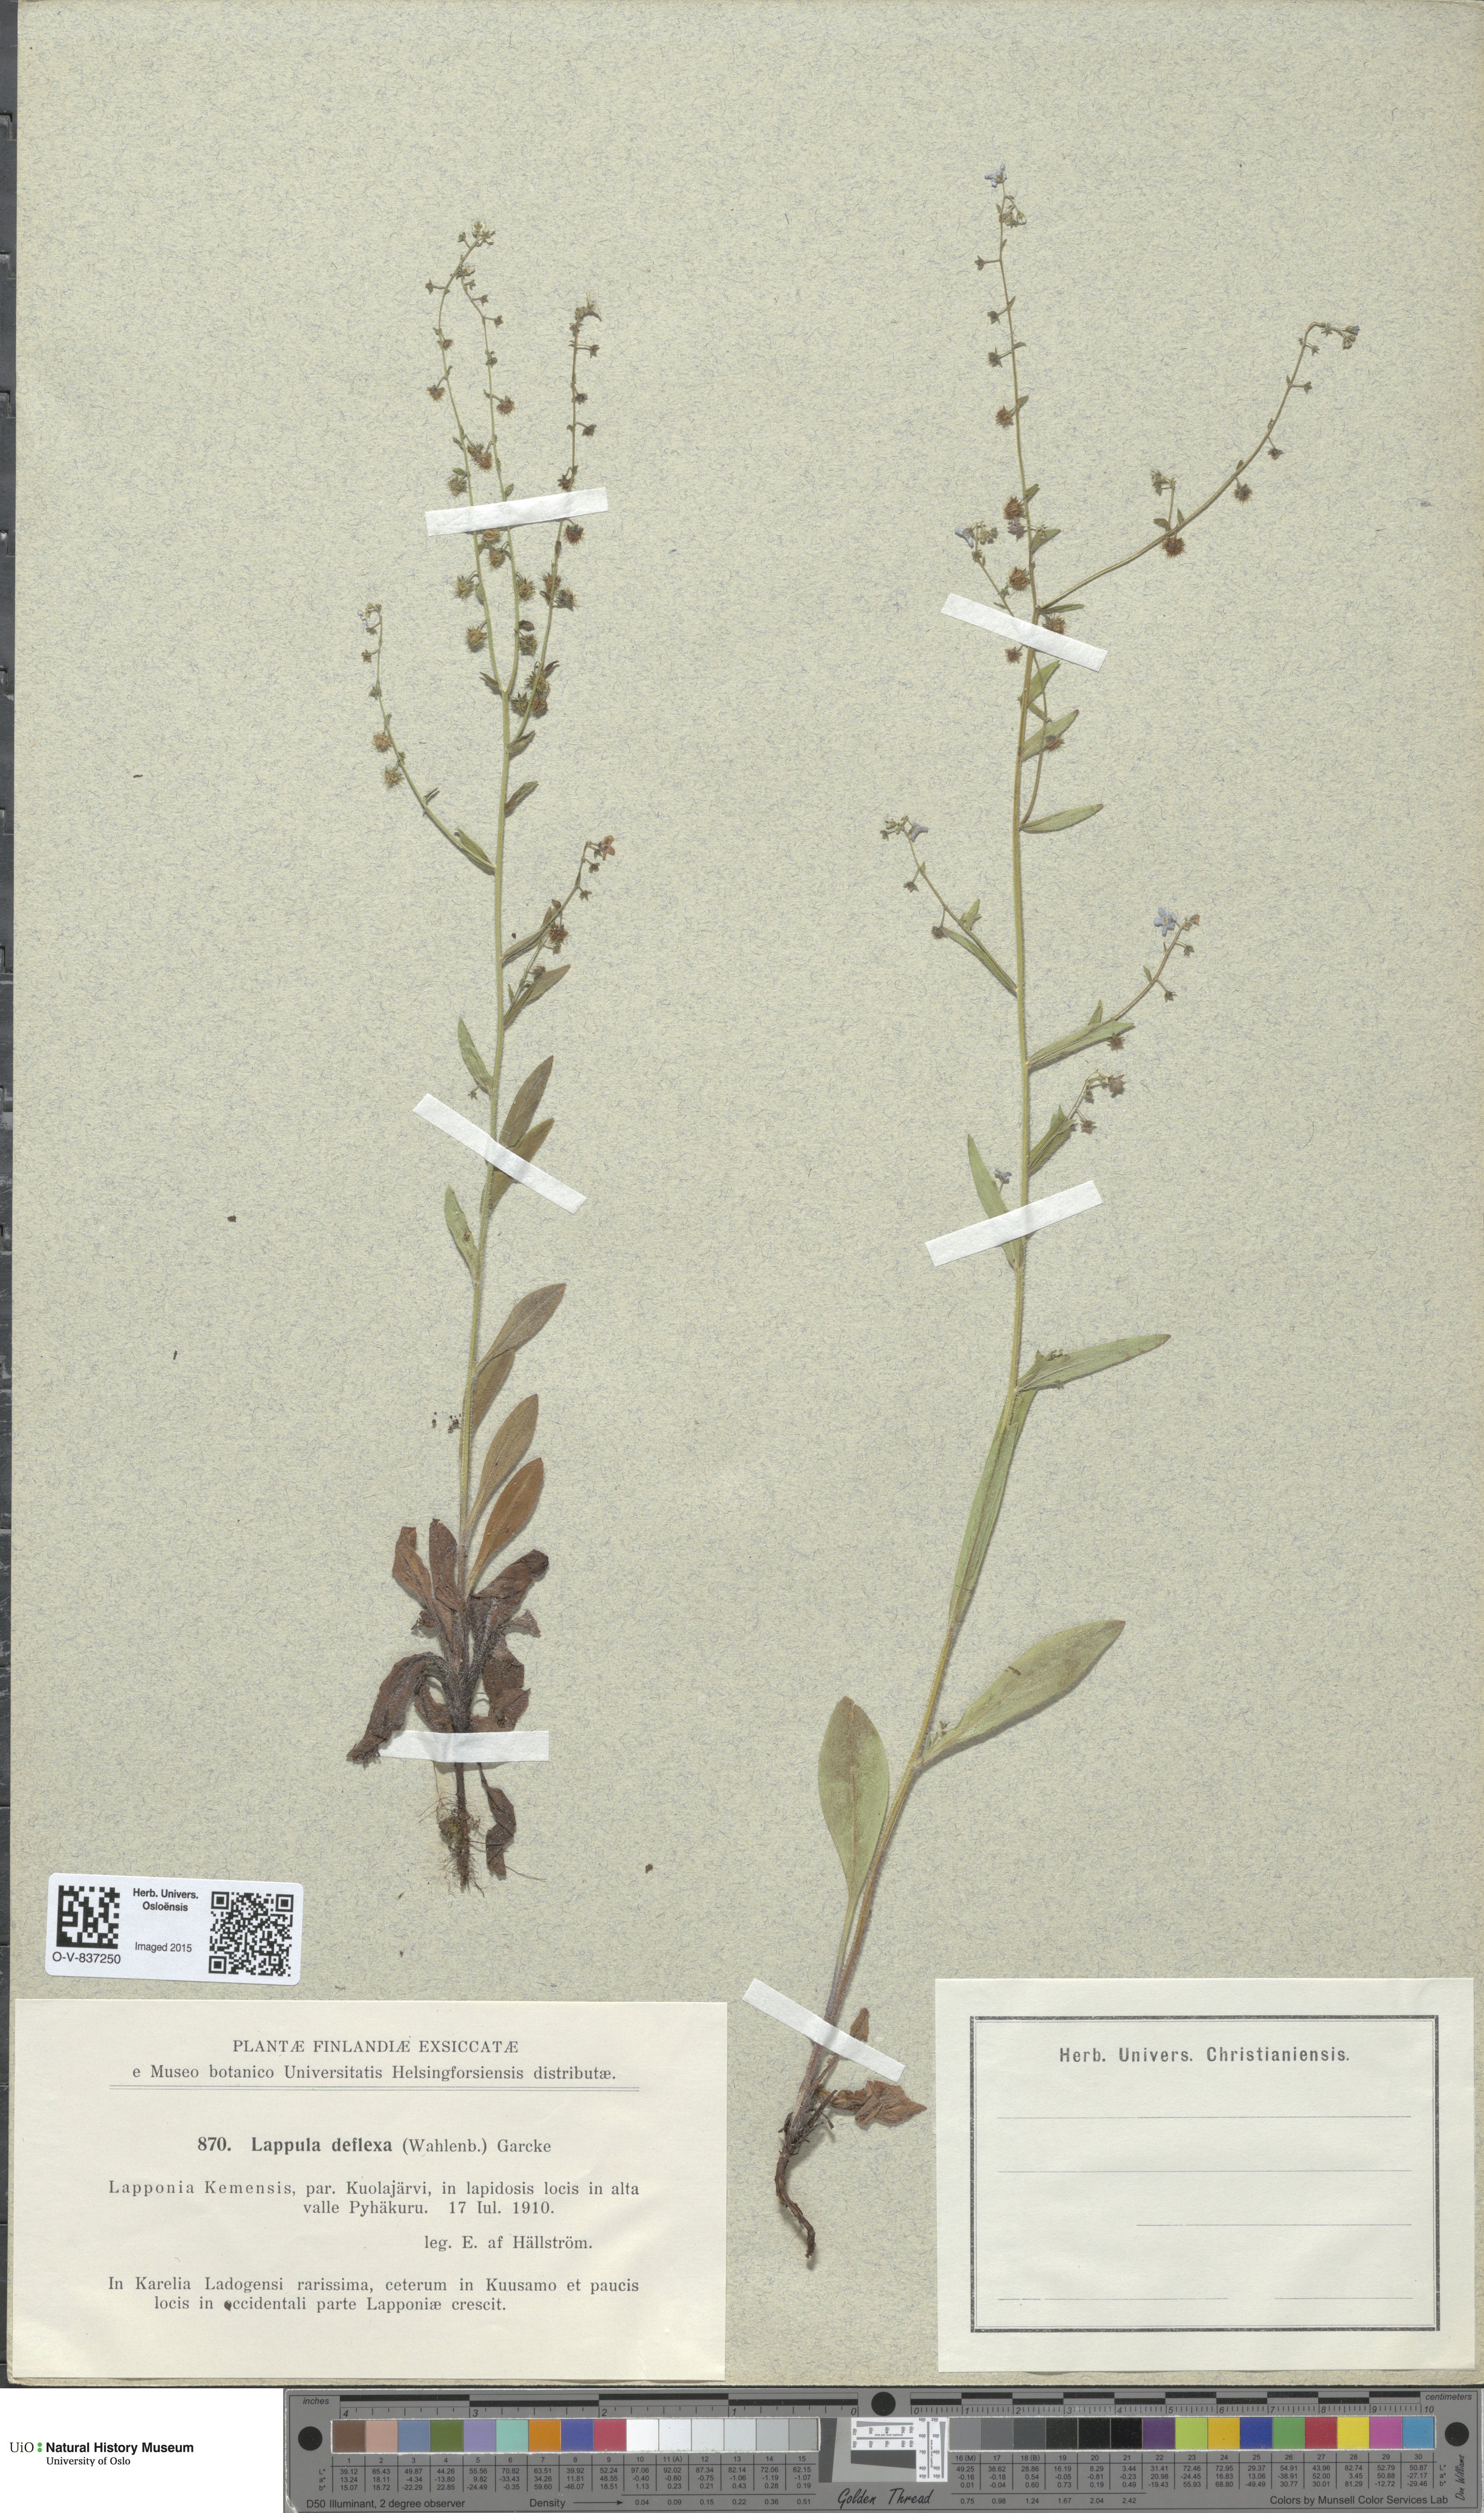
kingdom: Plantae
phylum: Tracheophyta
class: Magnoliopsida
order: Boraginales
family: Boraginaceae
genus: Hackelia
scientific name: Hackelia deflexa
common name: Nodding stickseed
